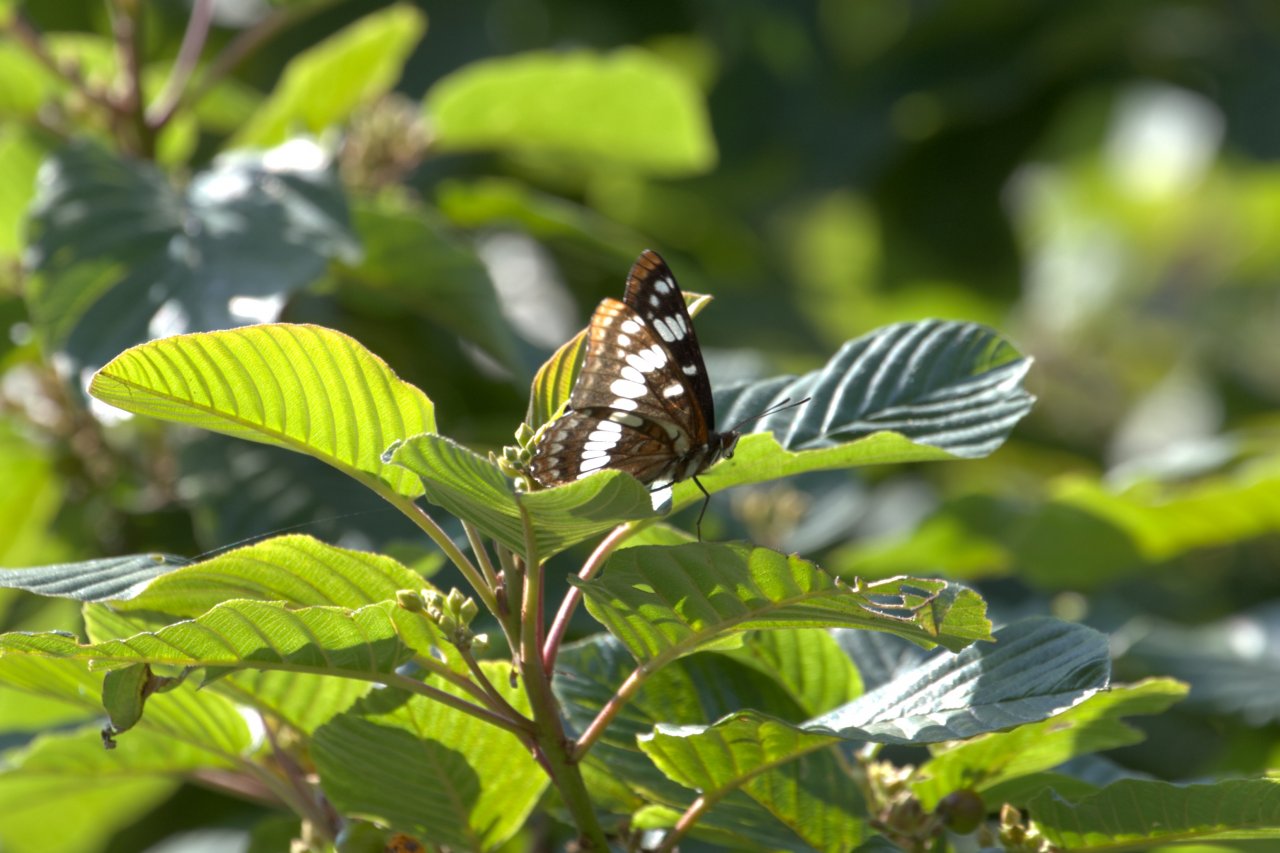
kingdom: Animalia
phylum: Arthropoda
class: Insecta
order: Lepidoptera
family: Nymphalidae
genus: Limenitis
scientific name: Limenitis lorquini
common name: Lorquin's Admiral
